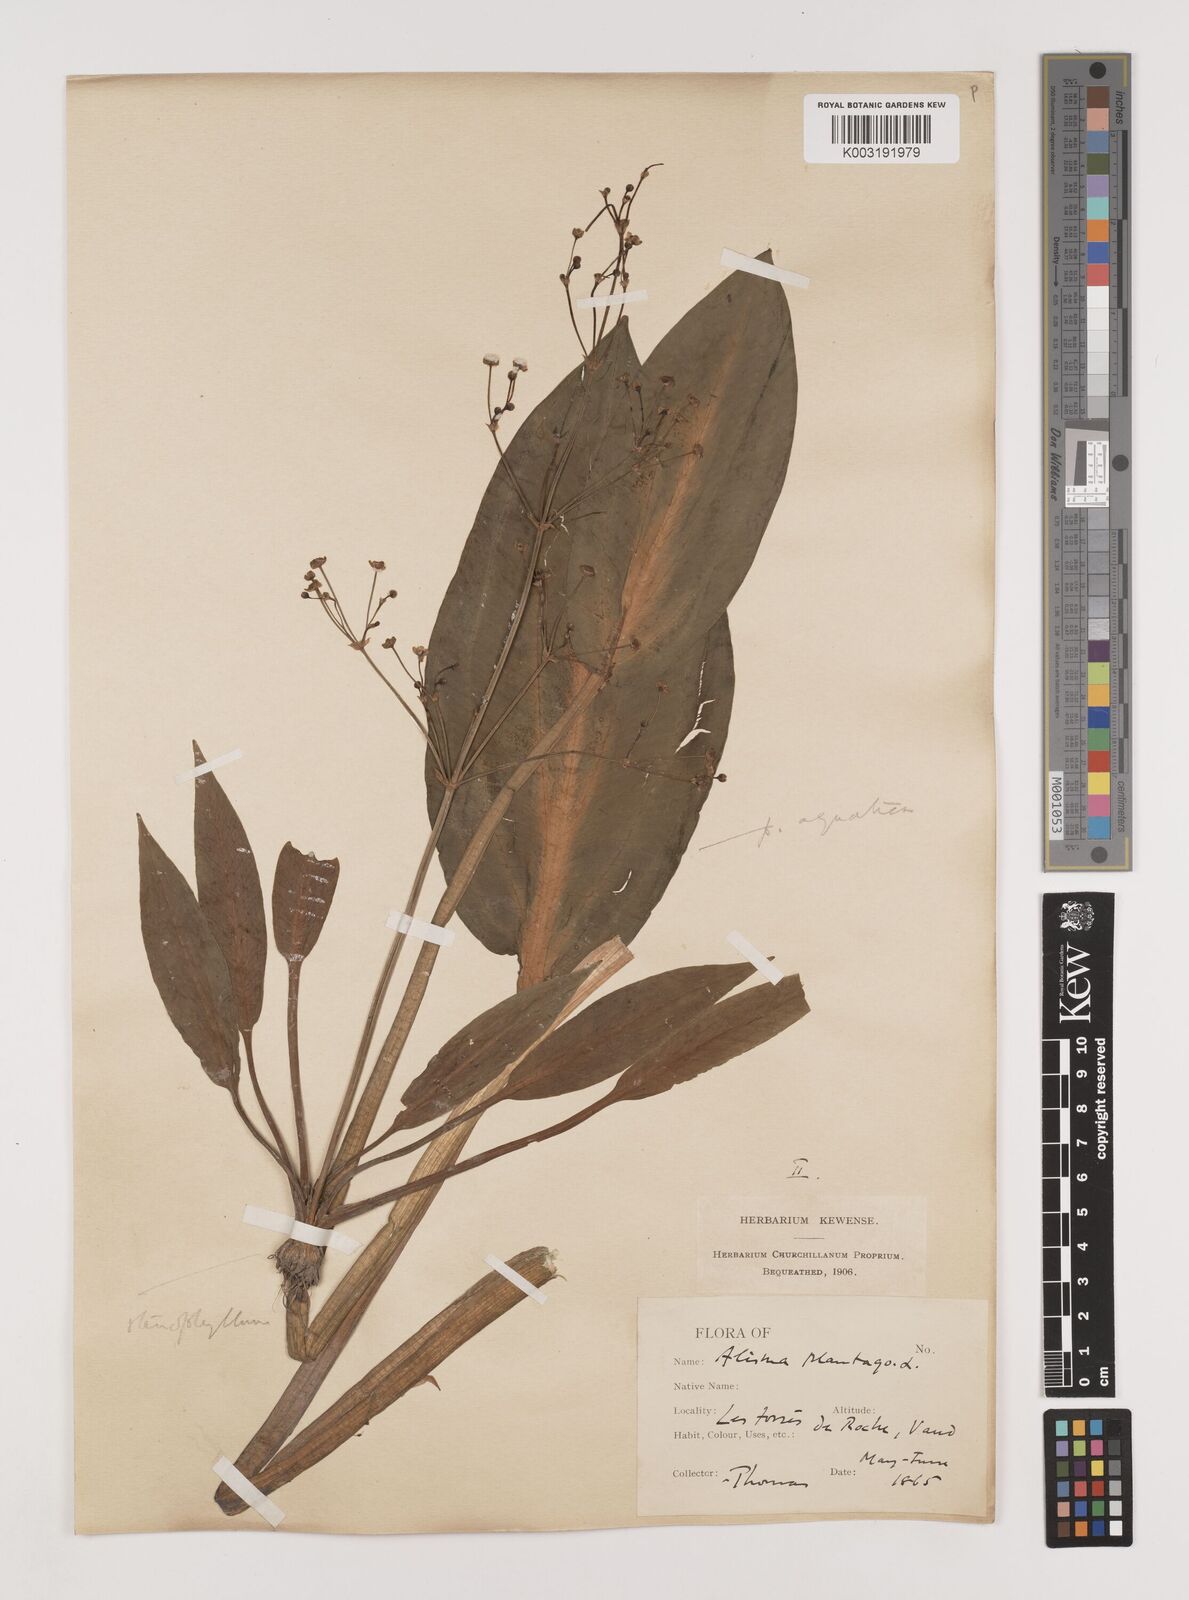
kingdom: Plantae
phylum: Tracheophyta
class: Liliopsida
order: Alismatales
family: Alismataceae
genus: Alisma
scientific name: Alisma lanceolatum
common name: Narrow-leaved water-plantain
